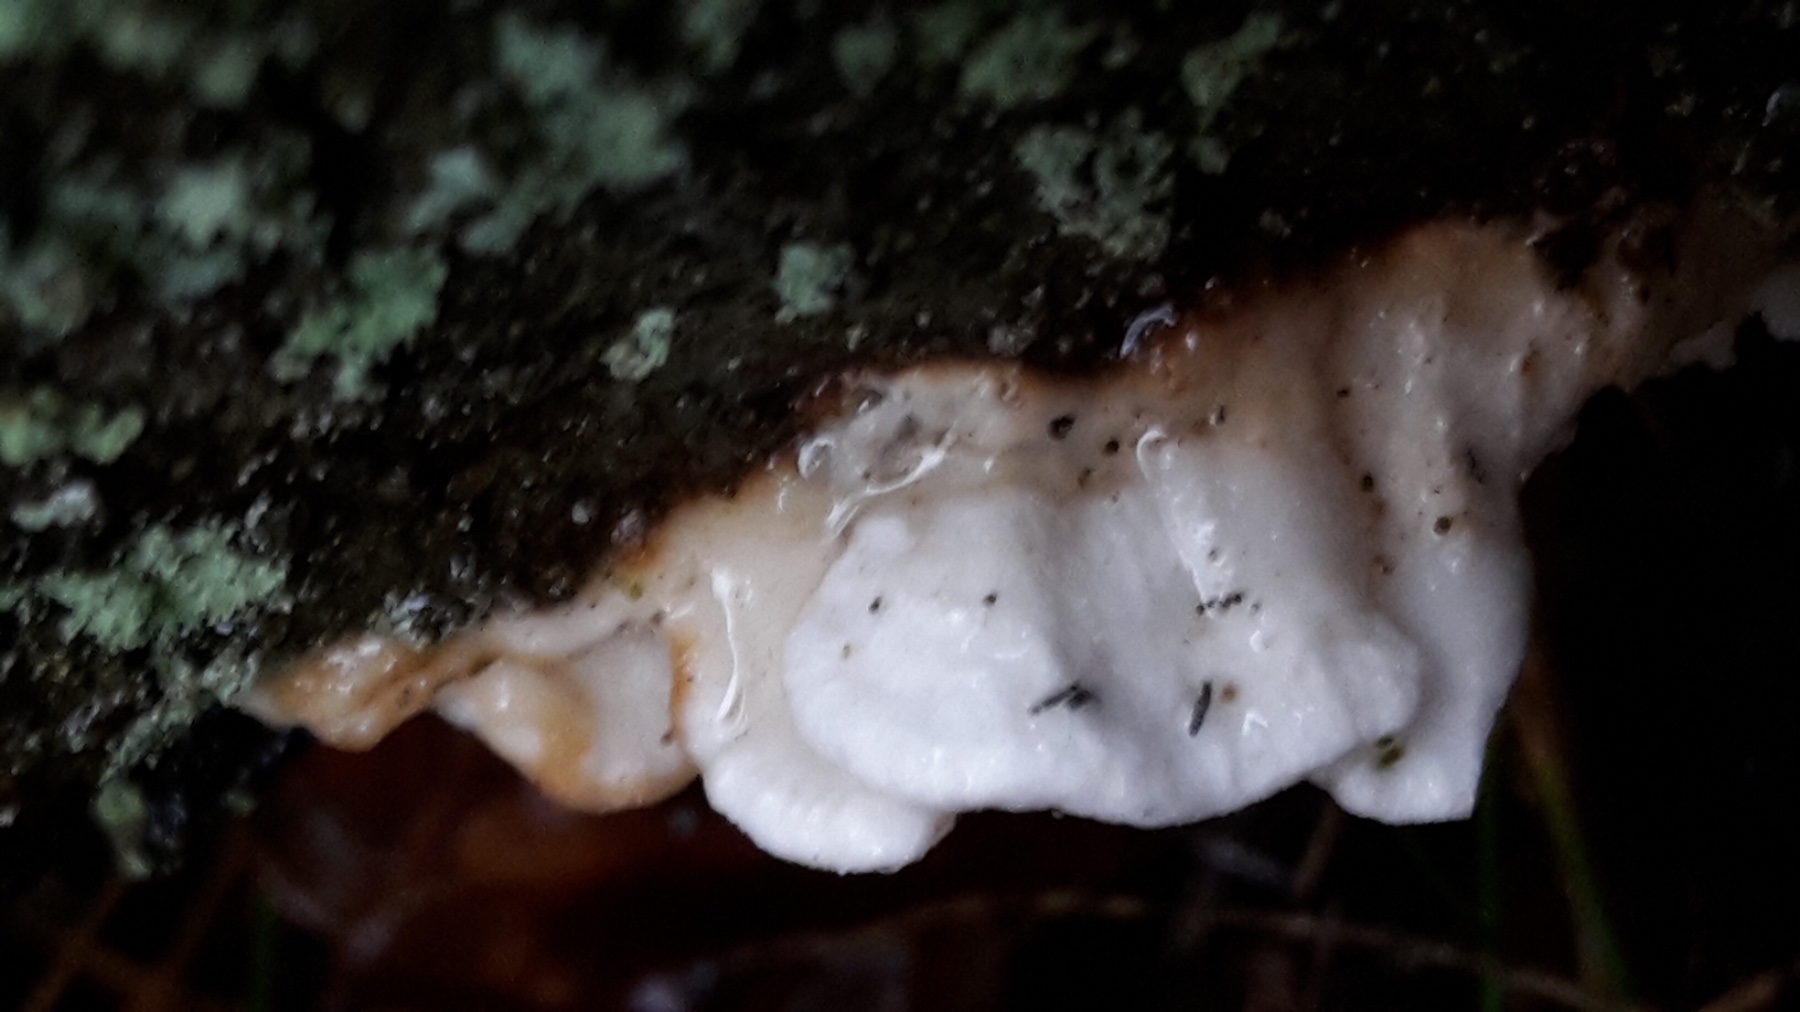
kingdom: Fungi
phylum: Basidiomycota
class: Agaricomycetes
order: Polyporales
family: Fomitopsidaceae
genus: Fomitopsis
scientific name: Fomitopsis
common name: fyrre-skiveporesvamp
